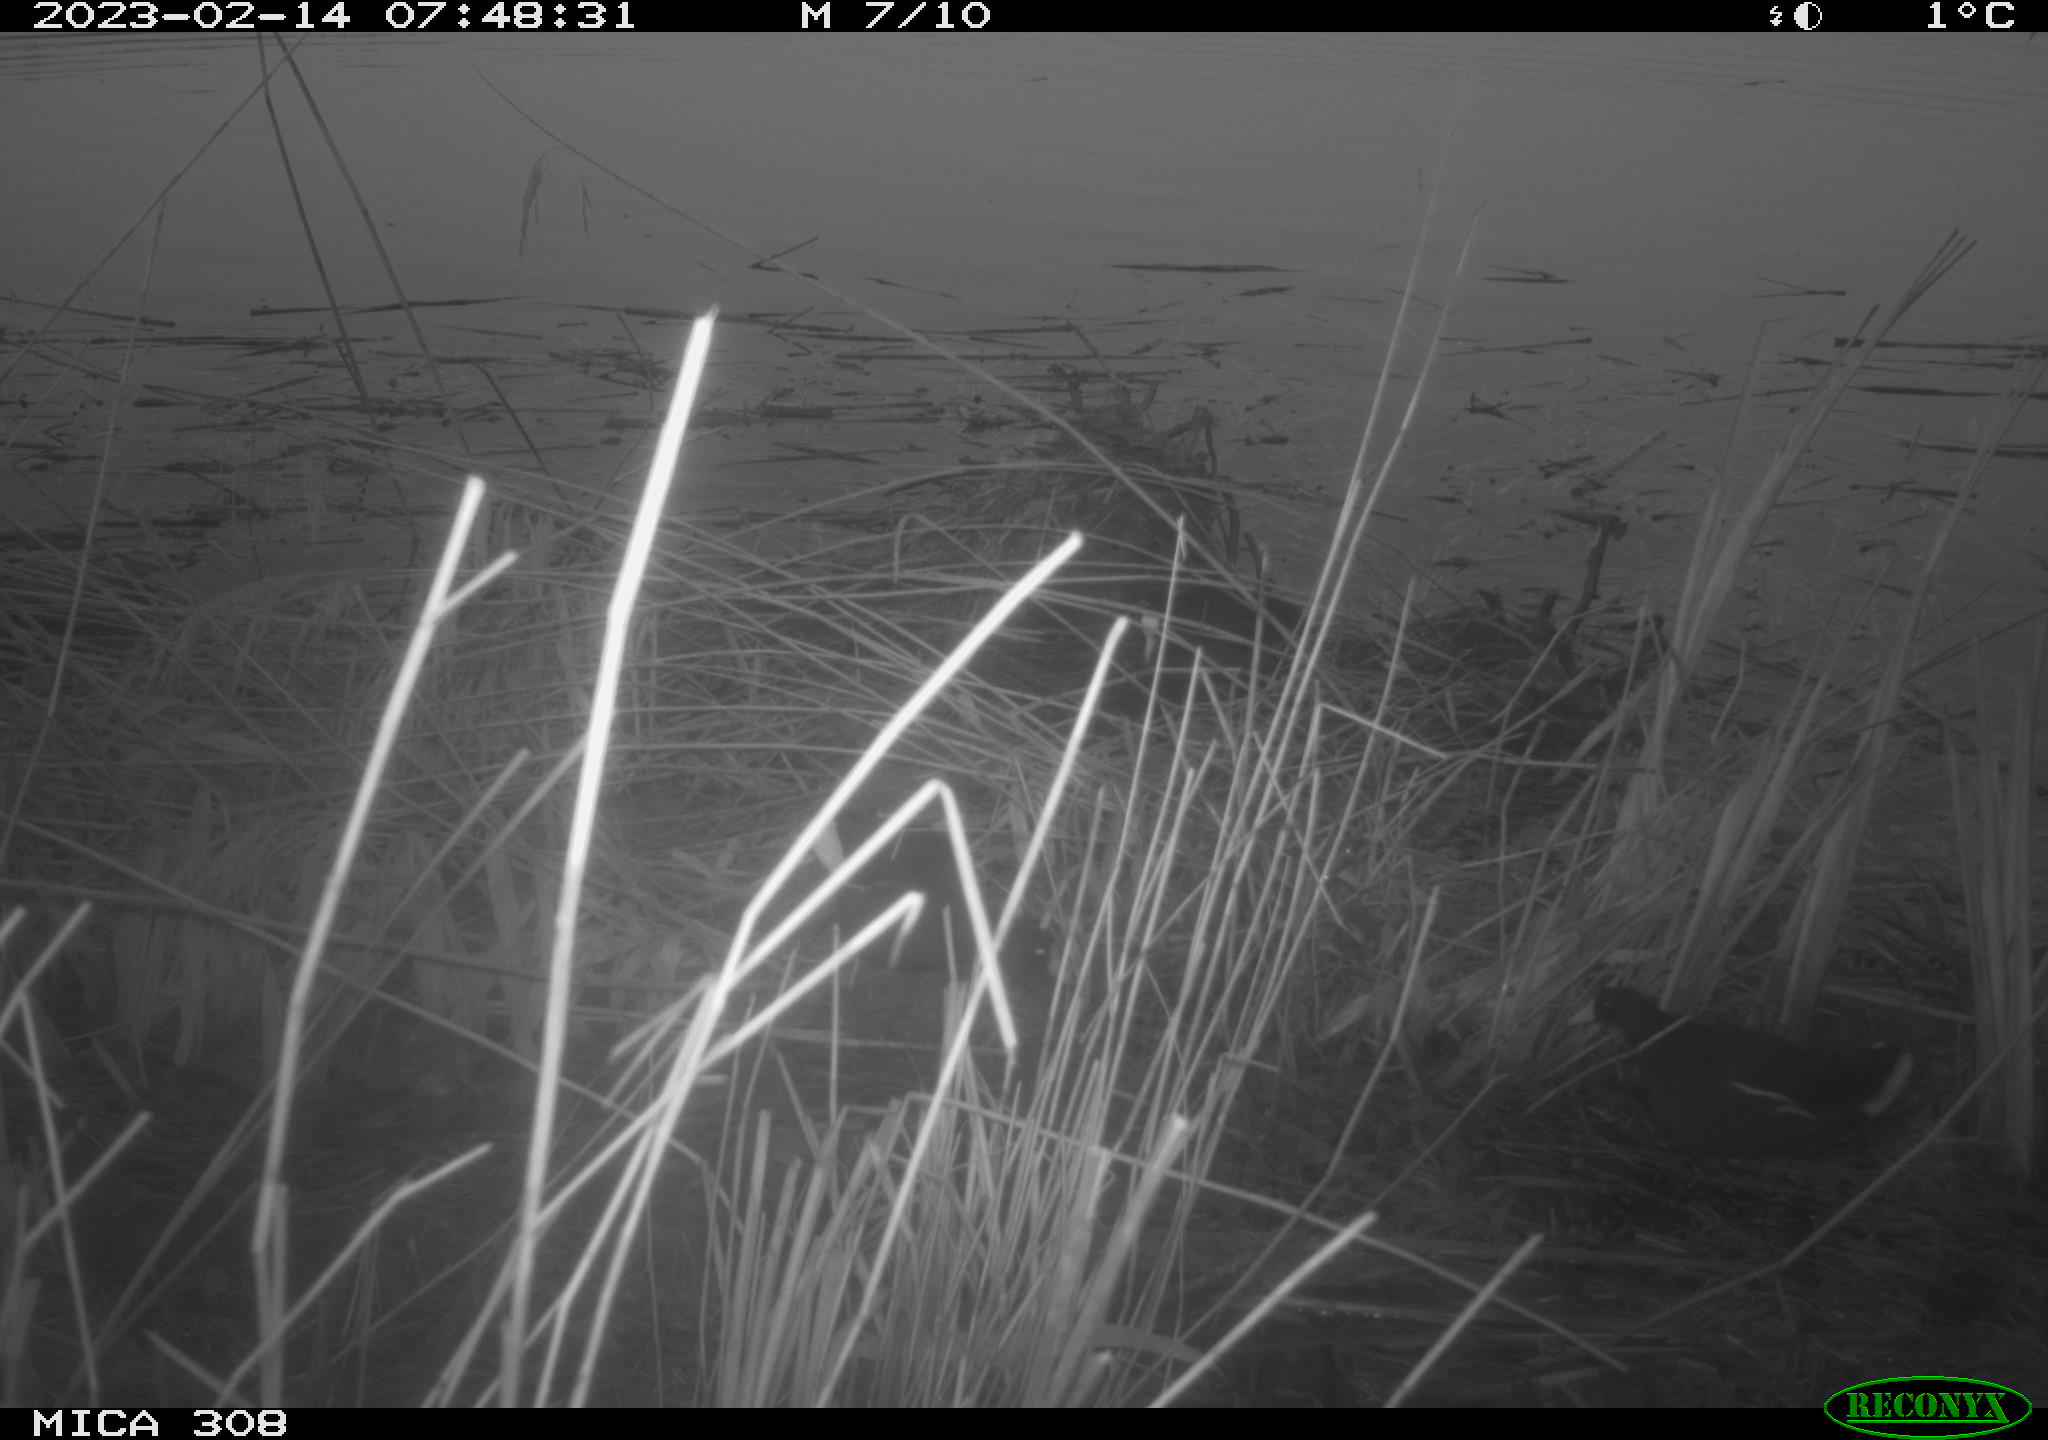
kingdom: Animalia
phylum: Chordata
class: Aves
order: Gruiformes
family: Rallidae
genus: Gallinula
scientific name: Gallinula chloropus
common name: Common moorhen
